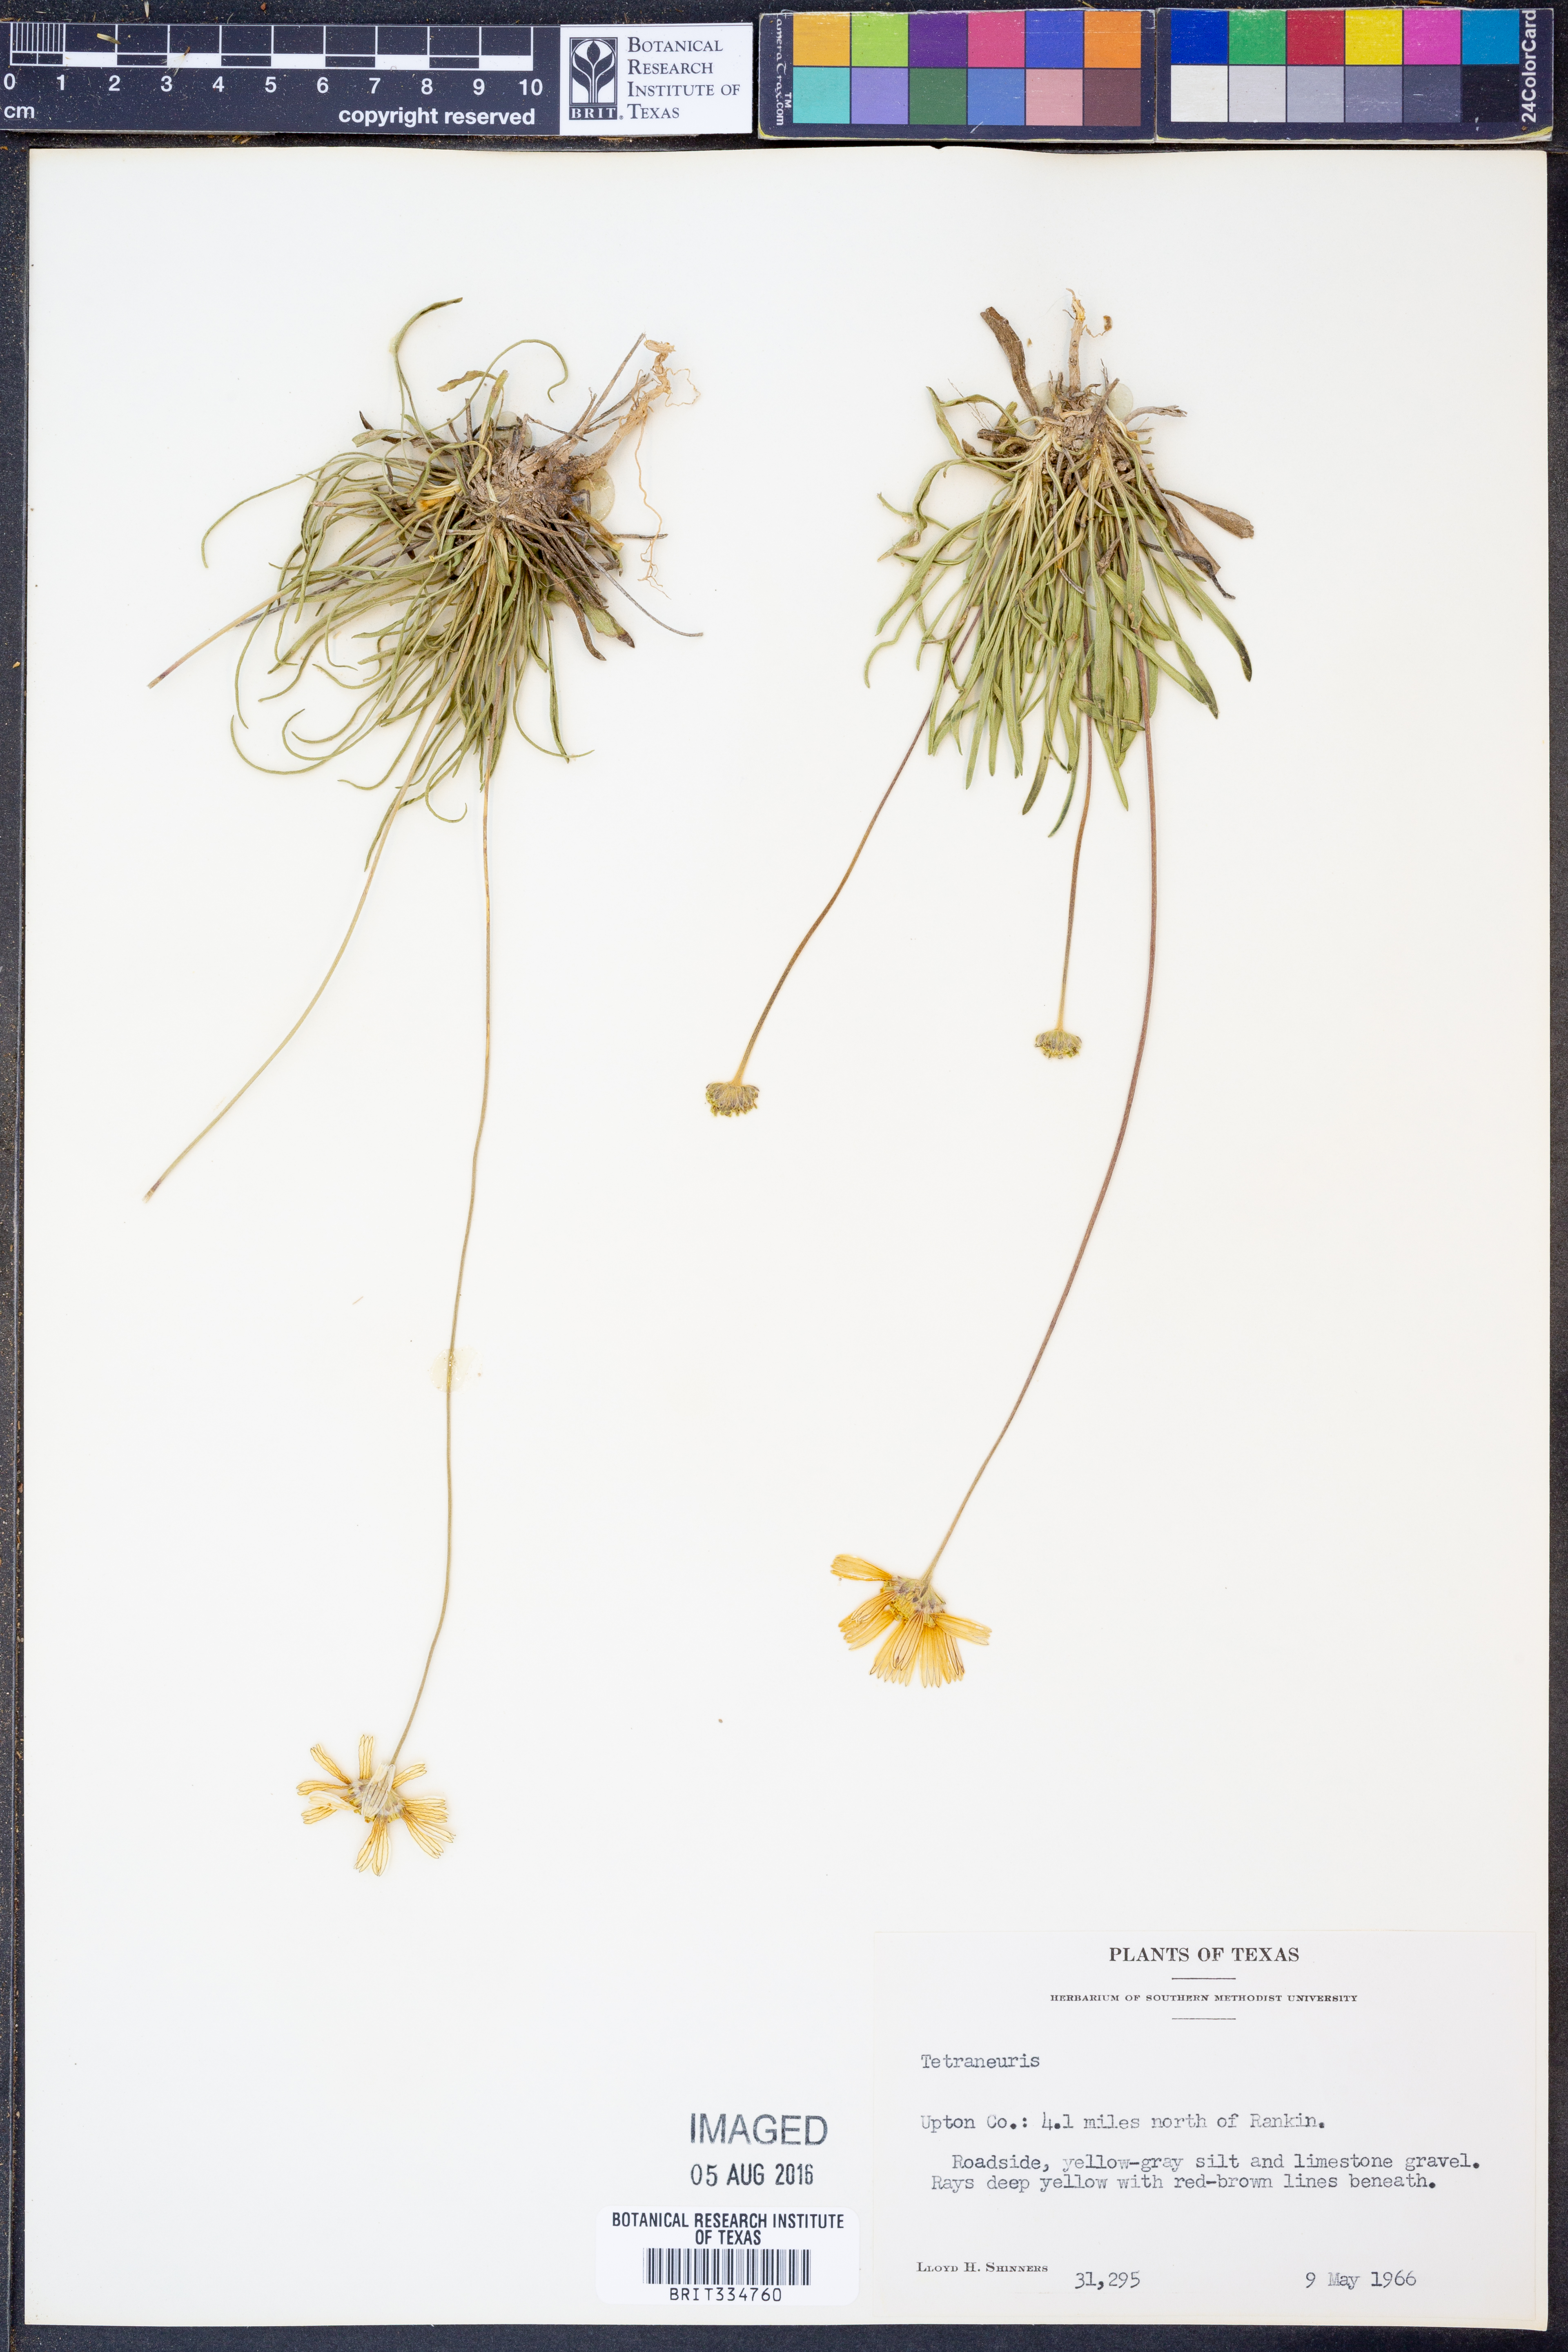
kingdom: Plantae
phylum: Tracheophyta
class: Magnoliopsida
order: Asterales
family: Asteraceae
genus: Tetraneuris
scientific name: Tetraneuris
